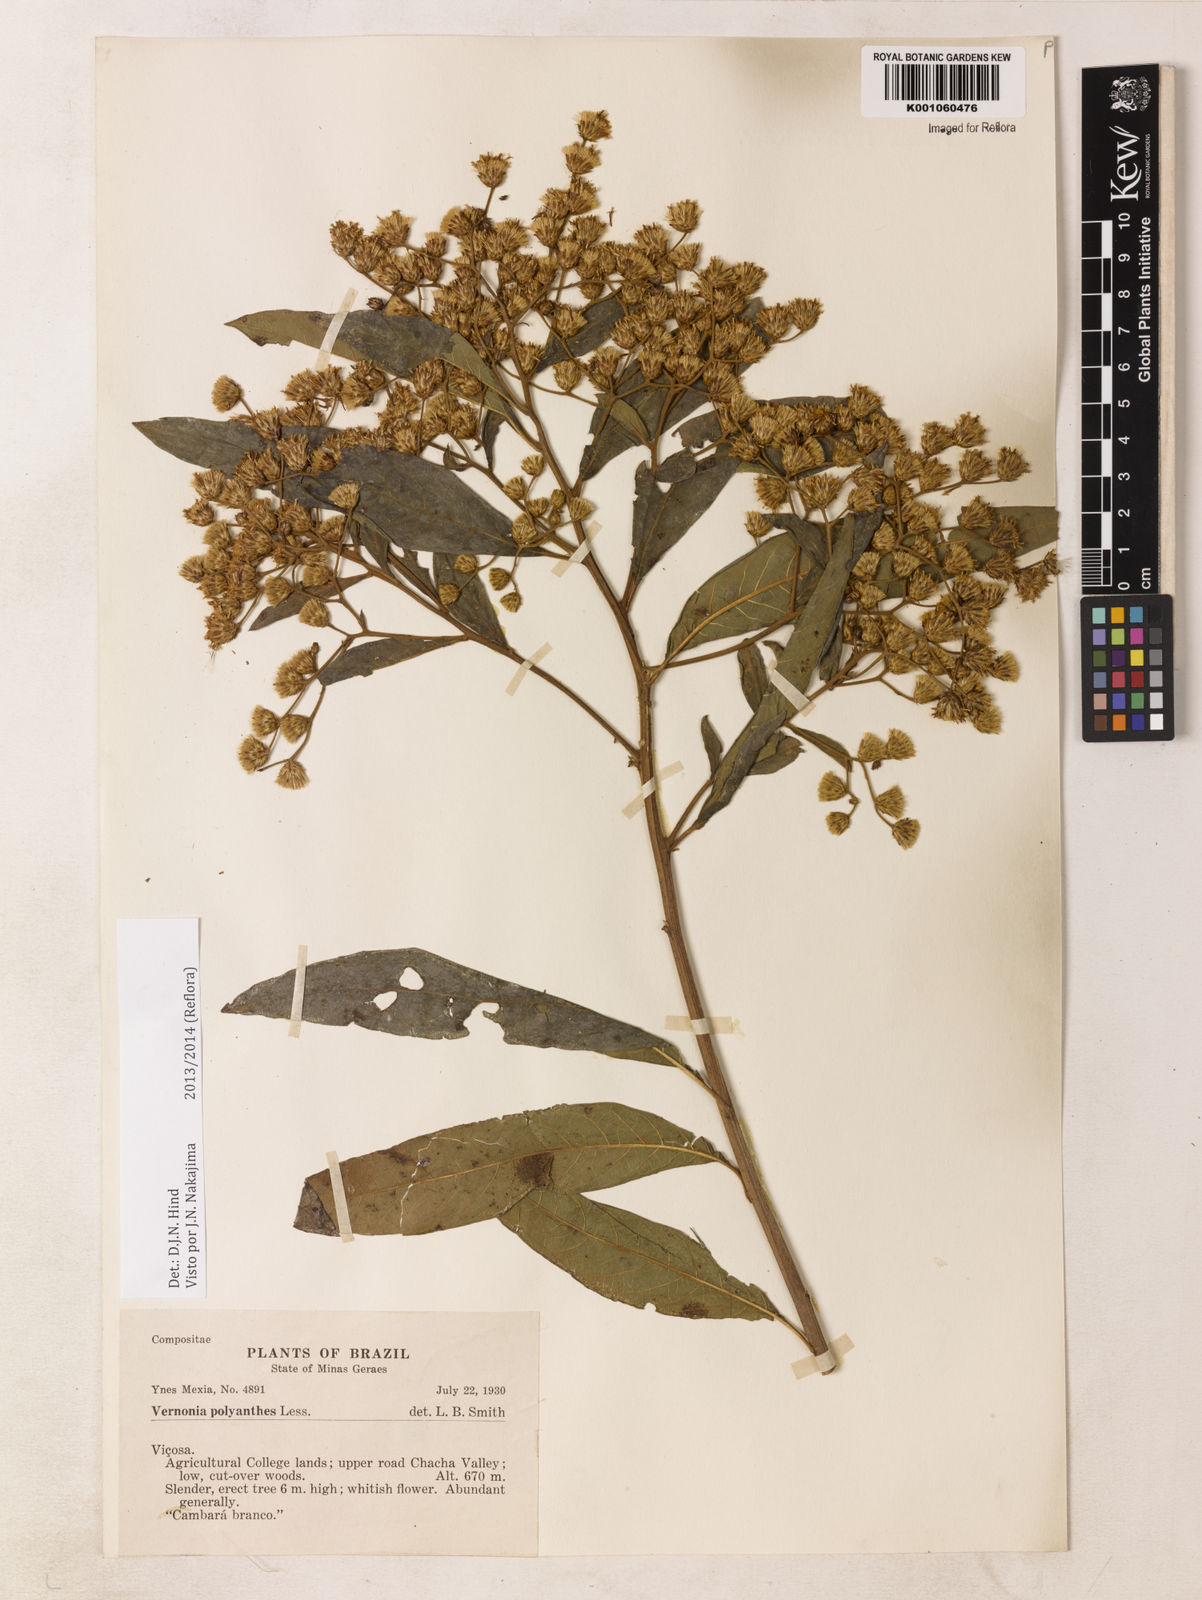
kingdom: Plantae
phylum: Tracheophyta
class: Magnoliopsida
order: Asterales
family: Asteraceae
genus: Vernonanthura
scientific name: Vernonanthura polyanthes
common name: Tree aster
